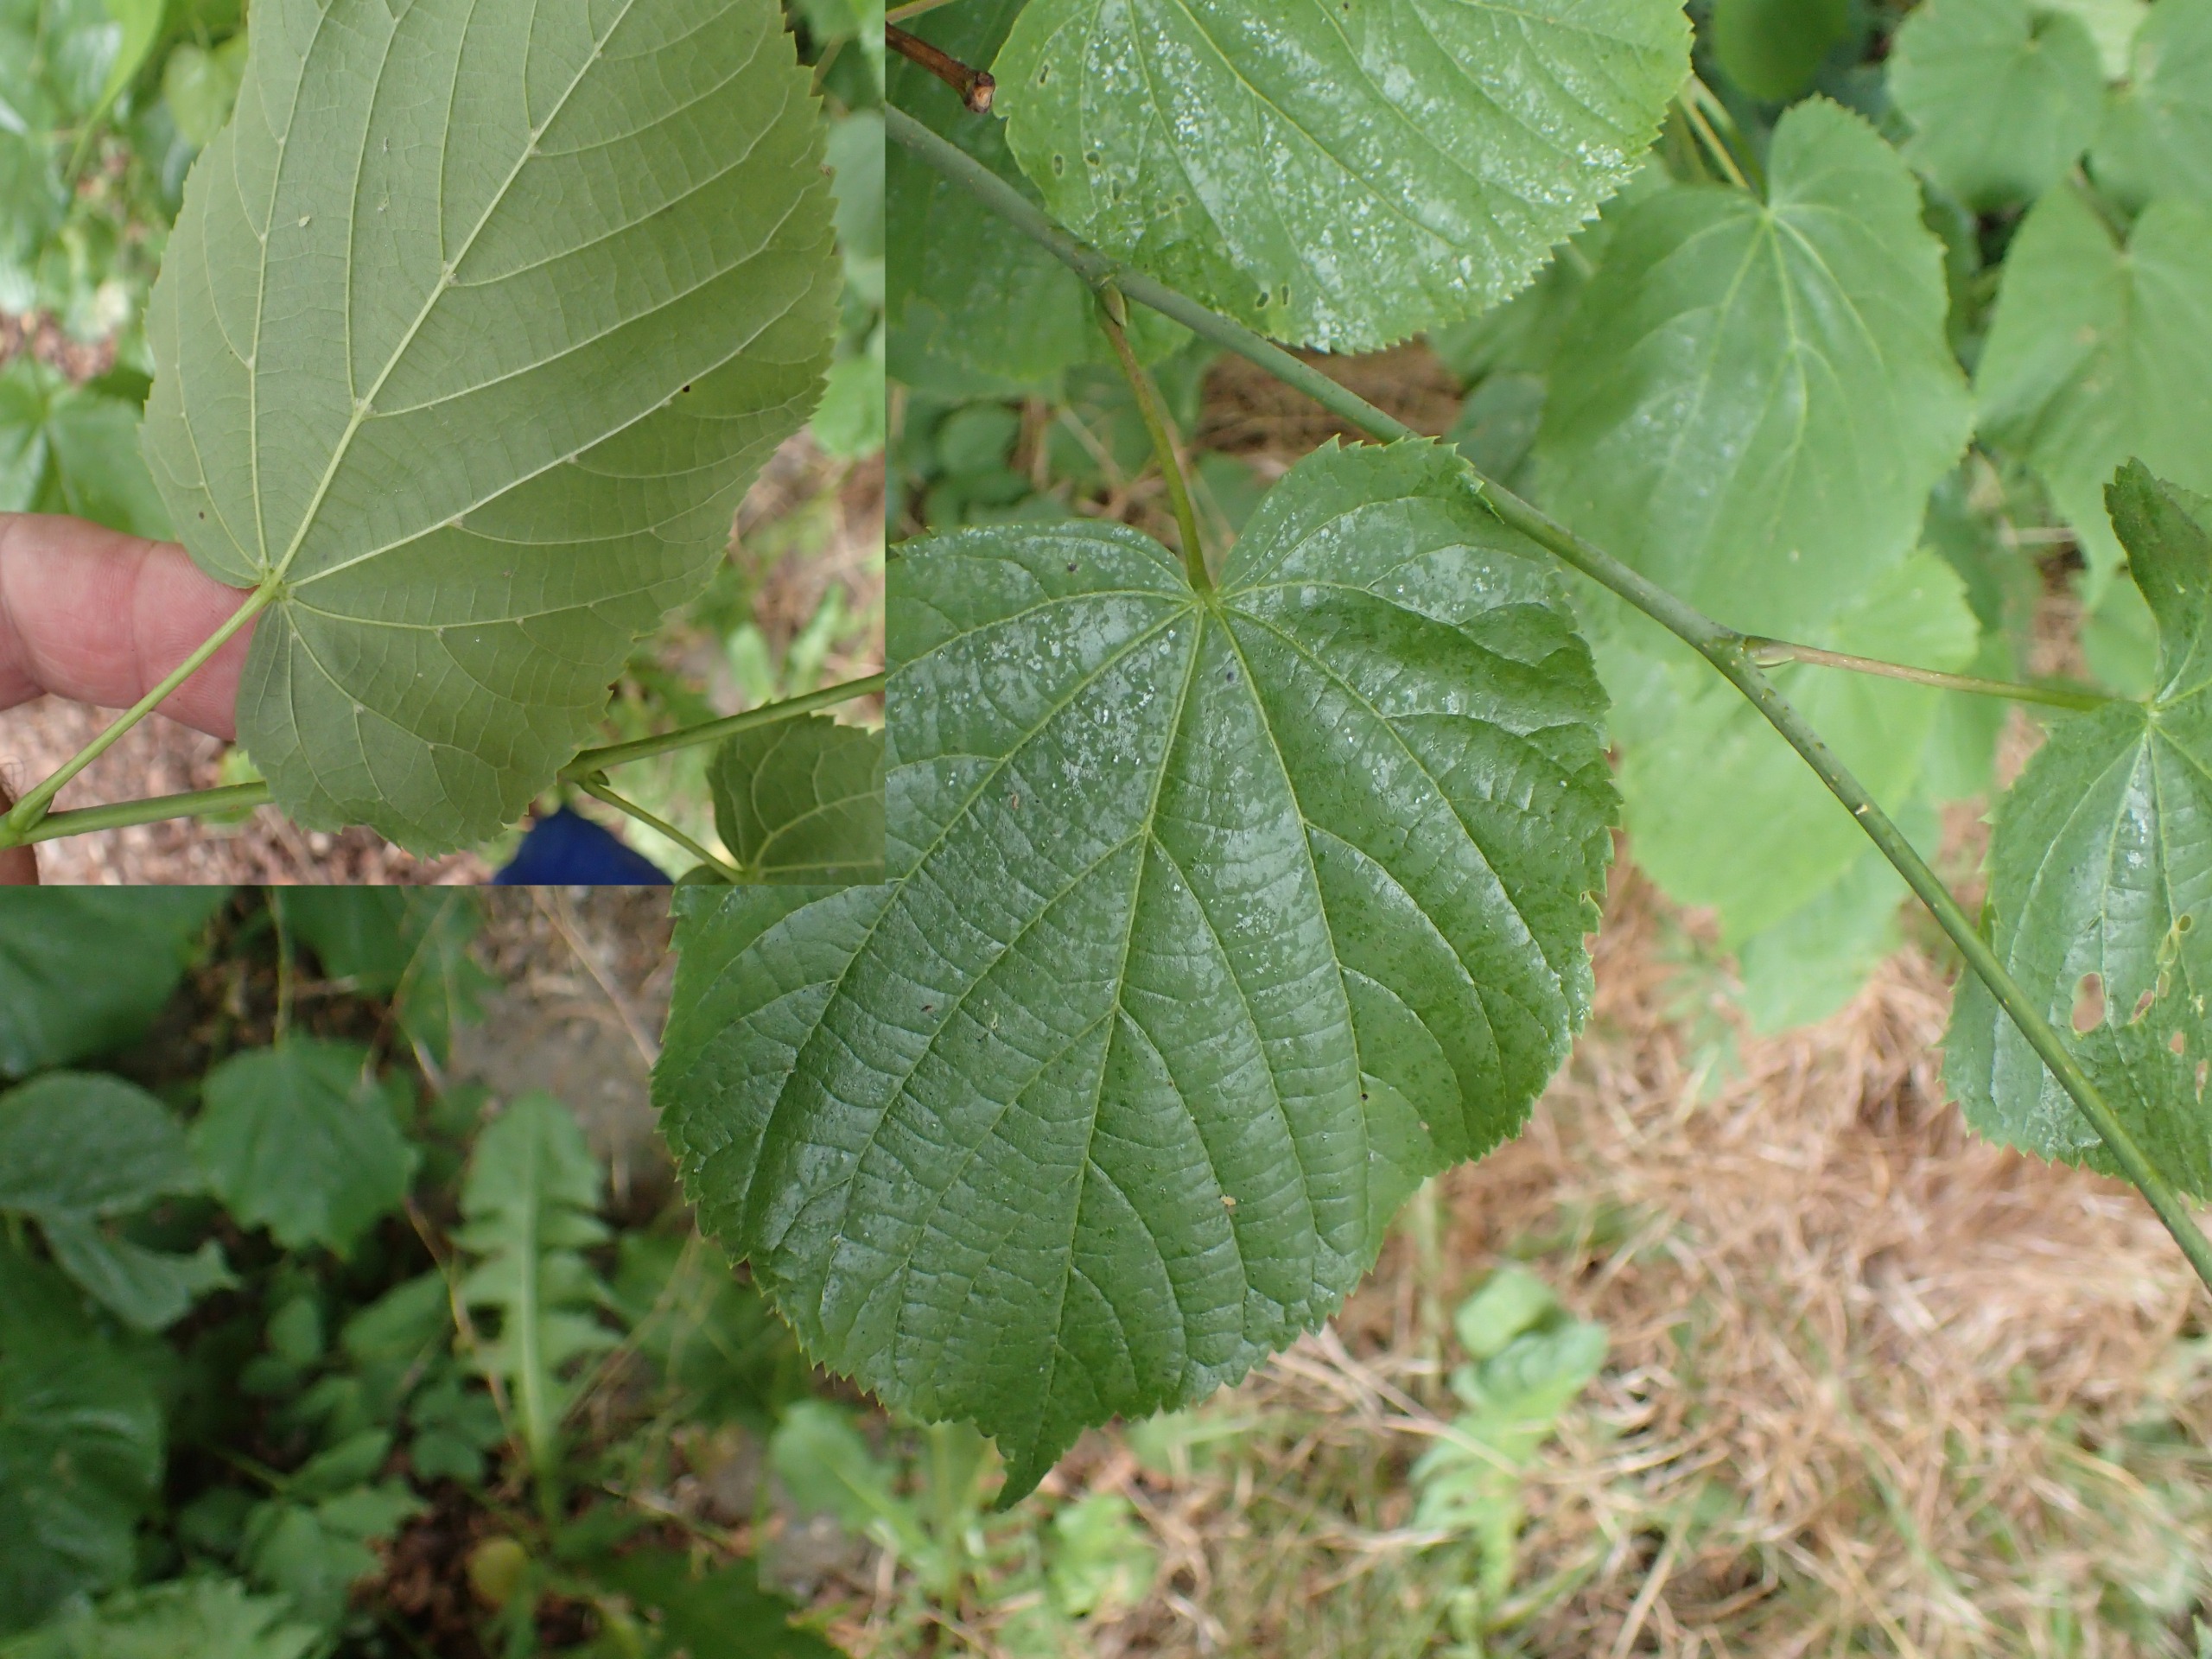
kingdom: Plantae
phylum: Tracheophyta
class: Magnoliopsida
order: Malvales
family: Malvaceae
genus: Tilia
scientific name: Tilia europaea
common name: Park-lind
